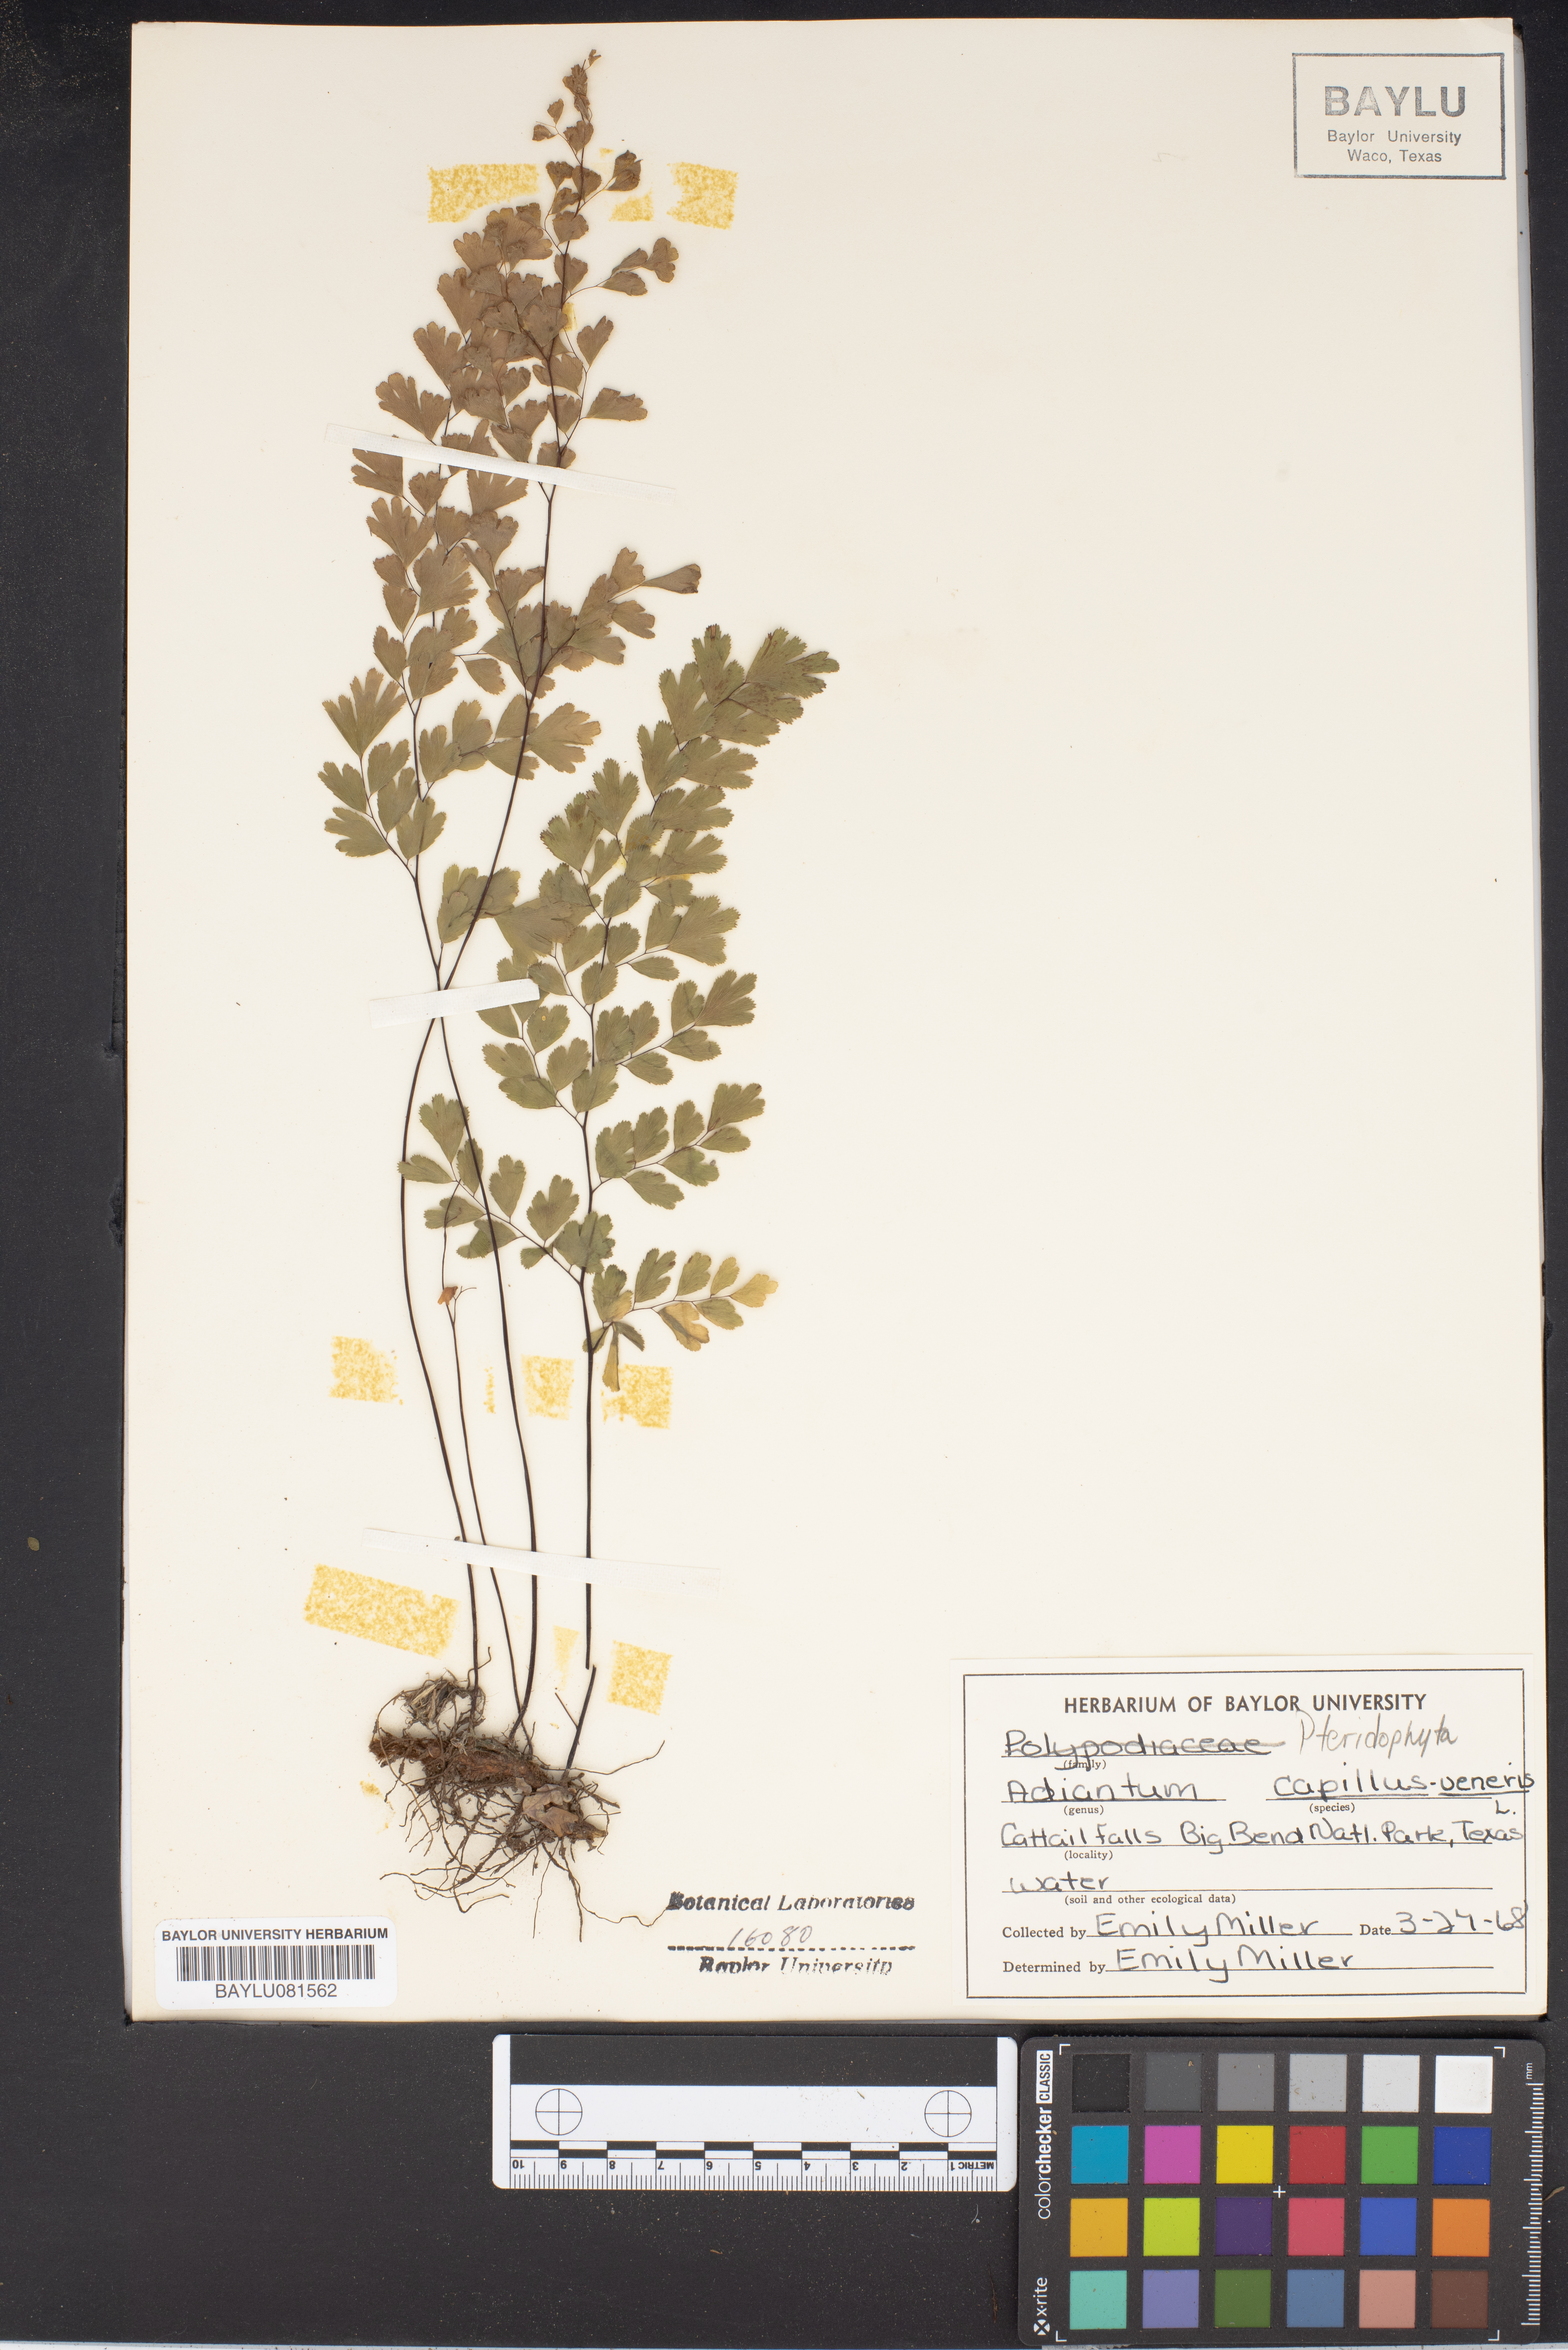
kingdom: Plantae
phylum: Tracheophyta
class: Polypodiopsida
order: Polypodiales
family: Pteridaceae
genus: Adiantum
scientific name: Adiantum capillus-veneris
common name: Maidenhair fern
